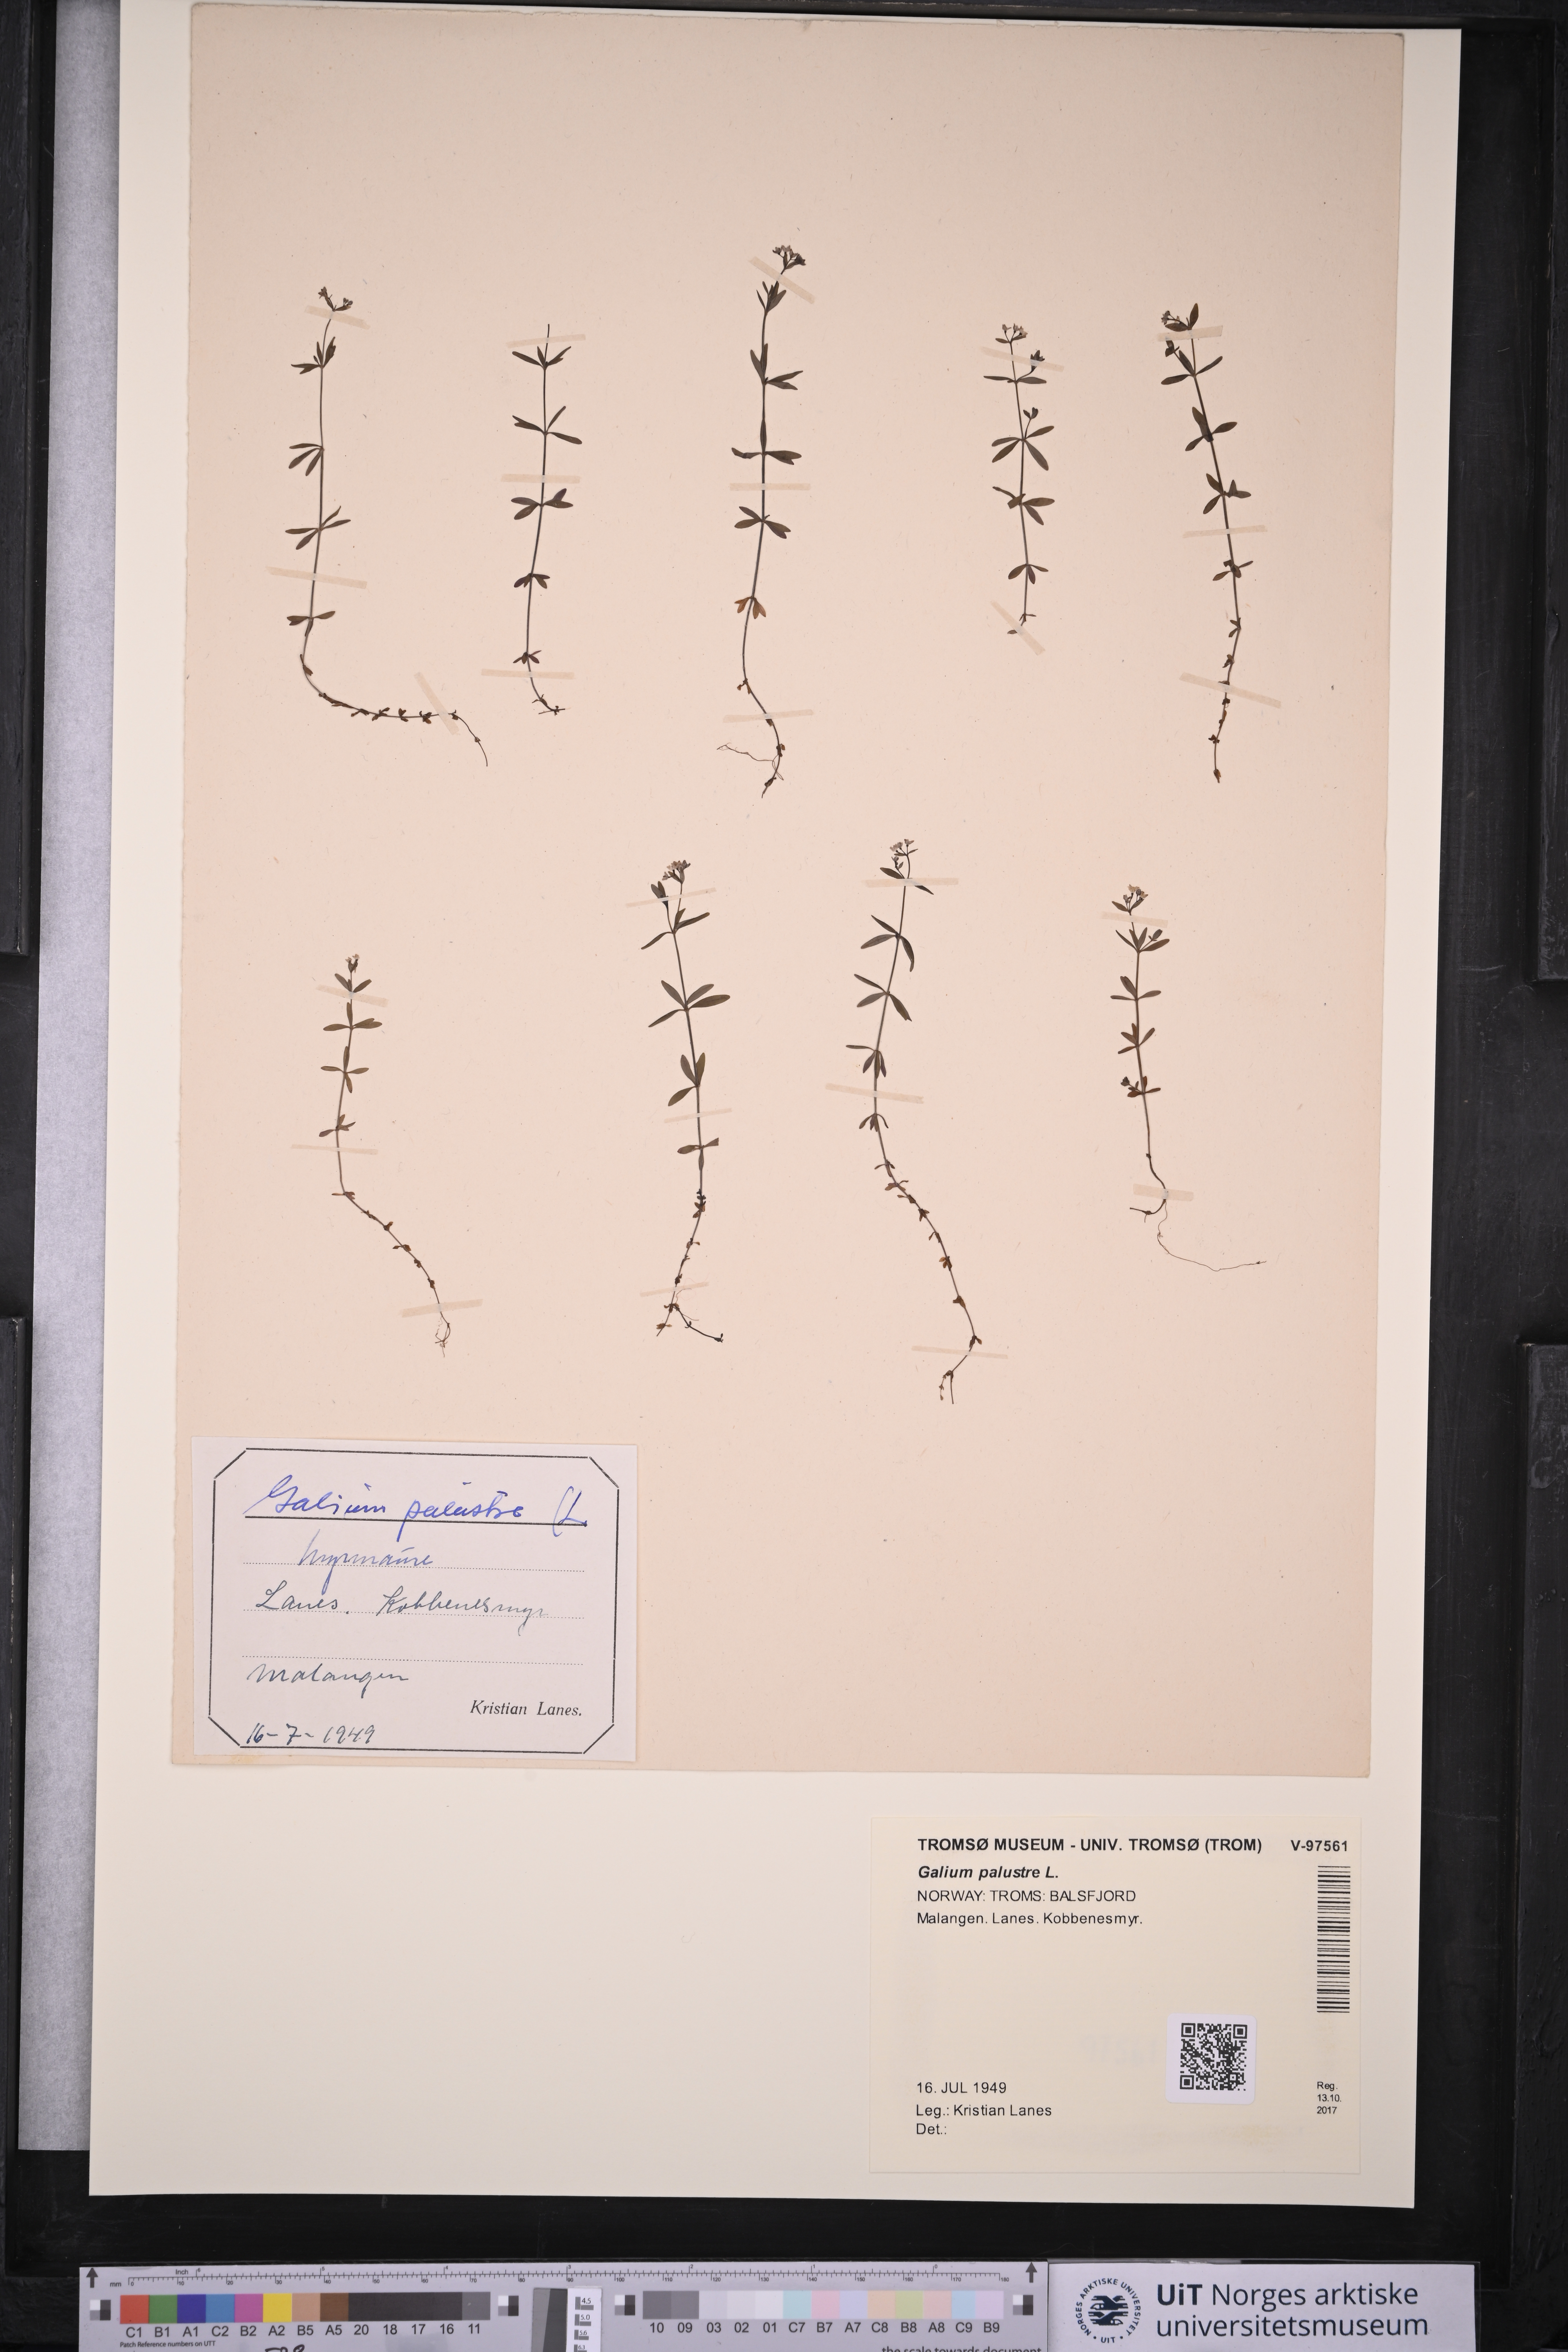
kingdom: Plantae
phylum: Tracheophyta
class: Magnoliopsida
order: Gentianales
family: Rubiaceae
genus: Galium
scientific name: Galium palustre
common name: Common marsh-bedstraw
